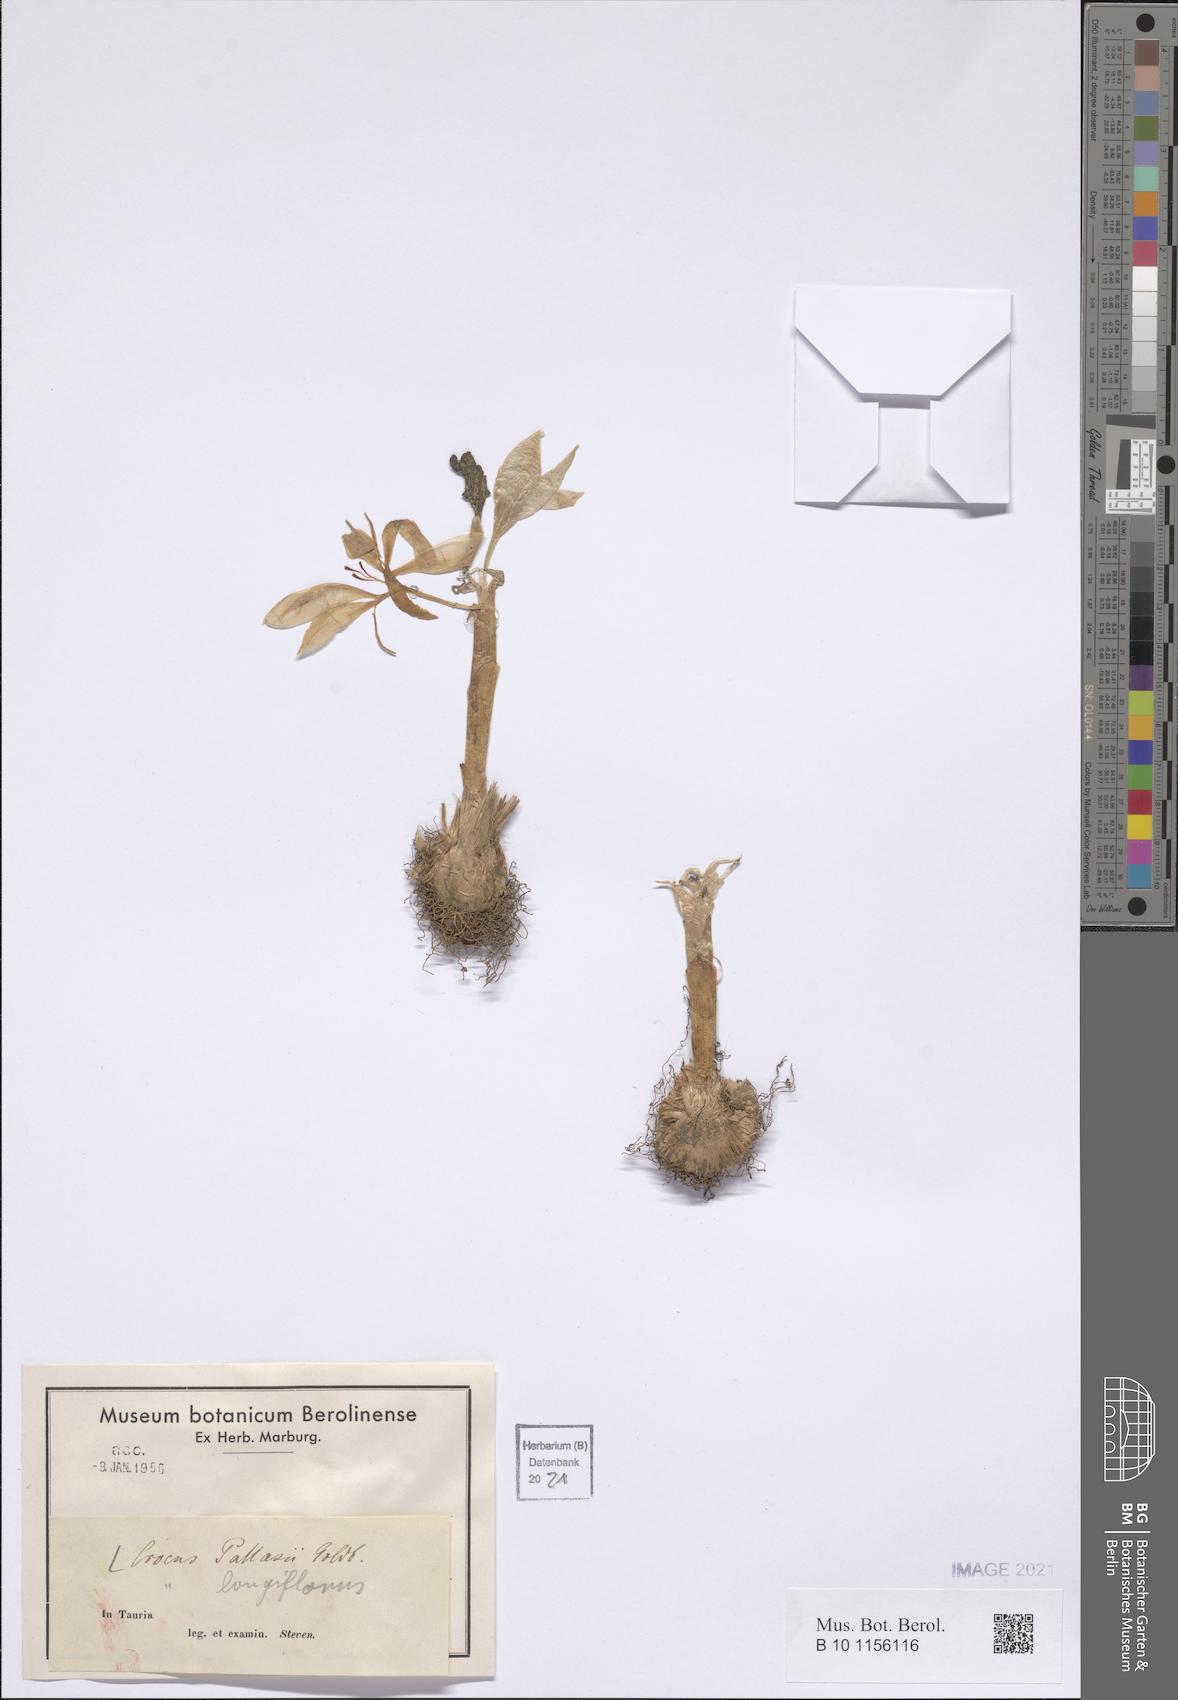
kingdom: Plantae
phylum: Tracheophyta
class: Liliopsida
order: Asparagales
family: Iridaceae
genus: Crocus
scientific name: Crocus pallasii
